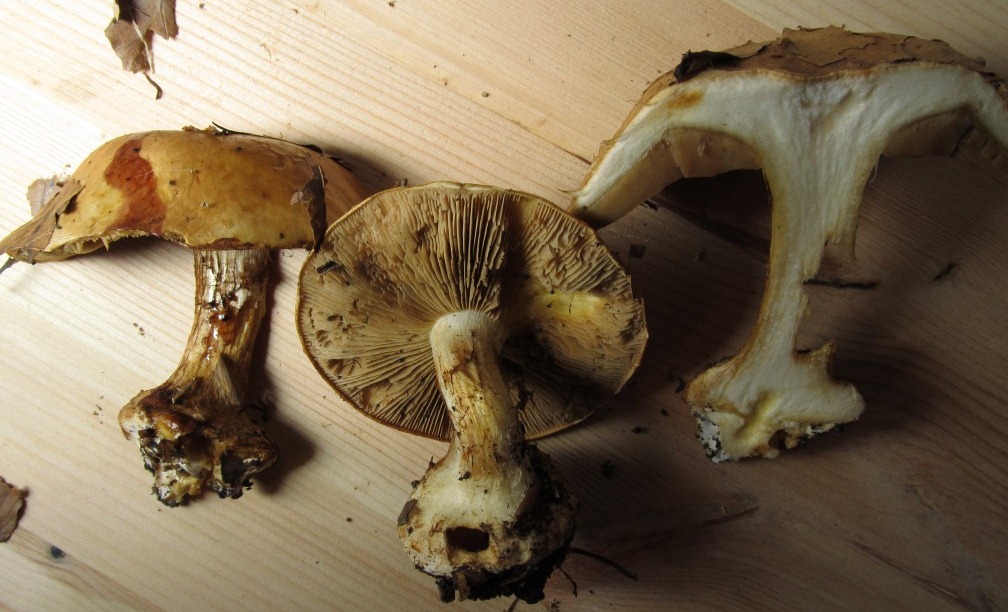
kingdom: Fungi
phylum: Basidiomycota
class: Agaricomycetes
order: Agaricales
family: Cortinariaceae
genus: Calonarius
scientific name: Calonarius humolens
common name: radise-slørhat
